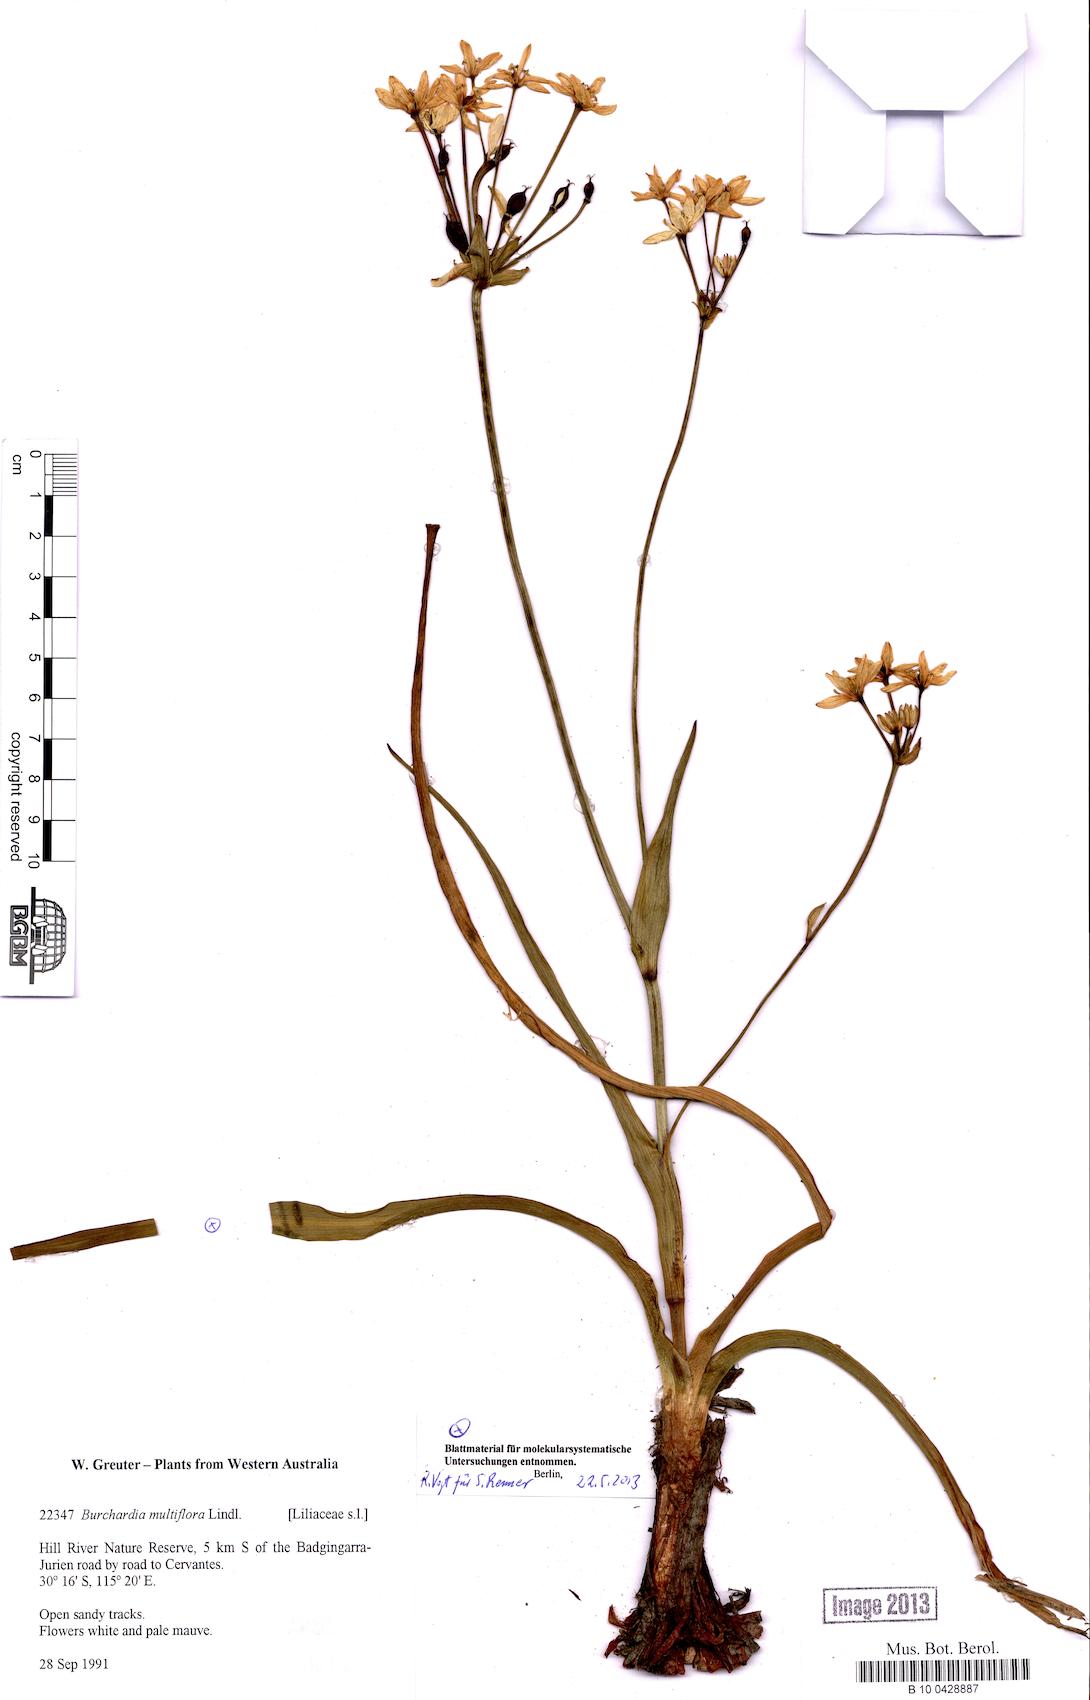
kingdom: Plantae
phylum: Tracheophyta
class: Liliopsida
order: Liliales
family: Colchicaceae
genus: Burchardia
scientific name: Burchardia multiflora
